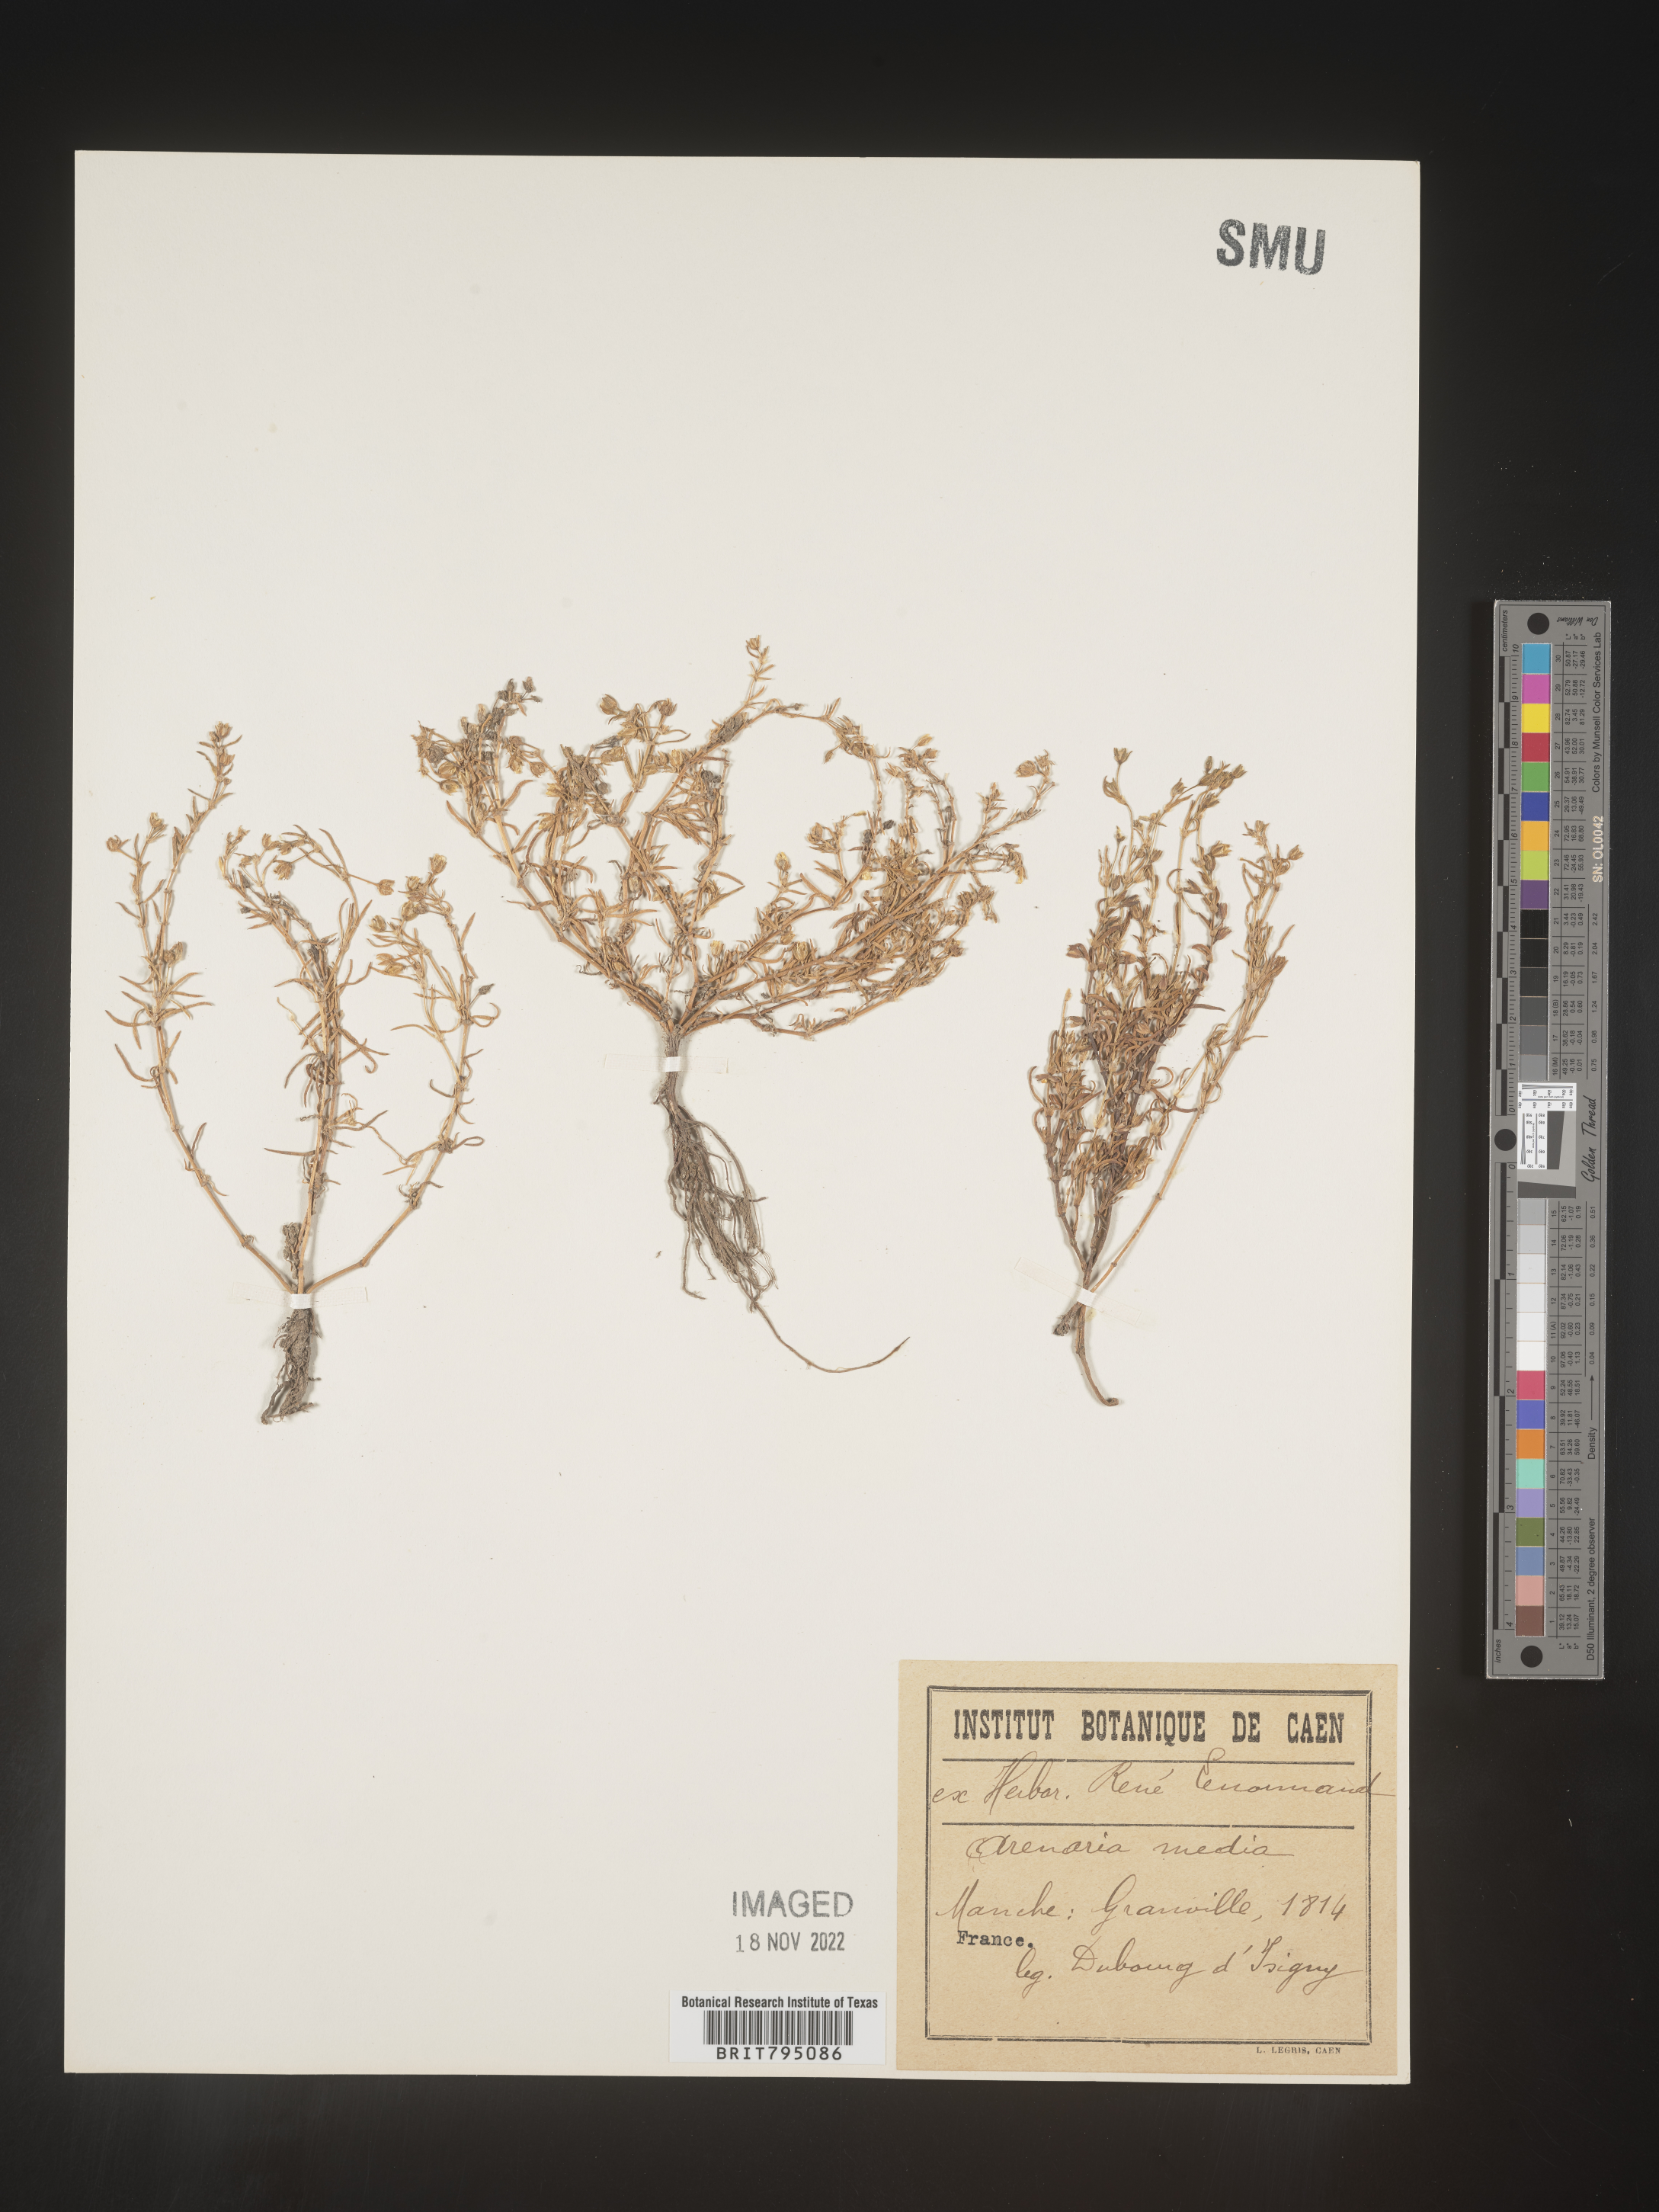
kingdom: Plantae
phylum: Tracheophyta
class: Magnoliopsida
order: Caryophyllales
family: Caryophyllaceae
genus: Spergularia
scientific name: Spergularia media
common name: Greater sea-spurrey
